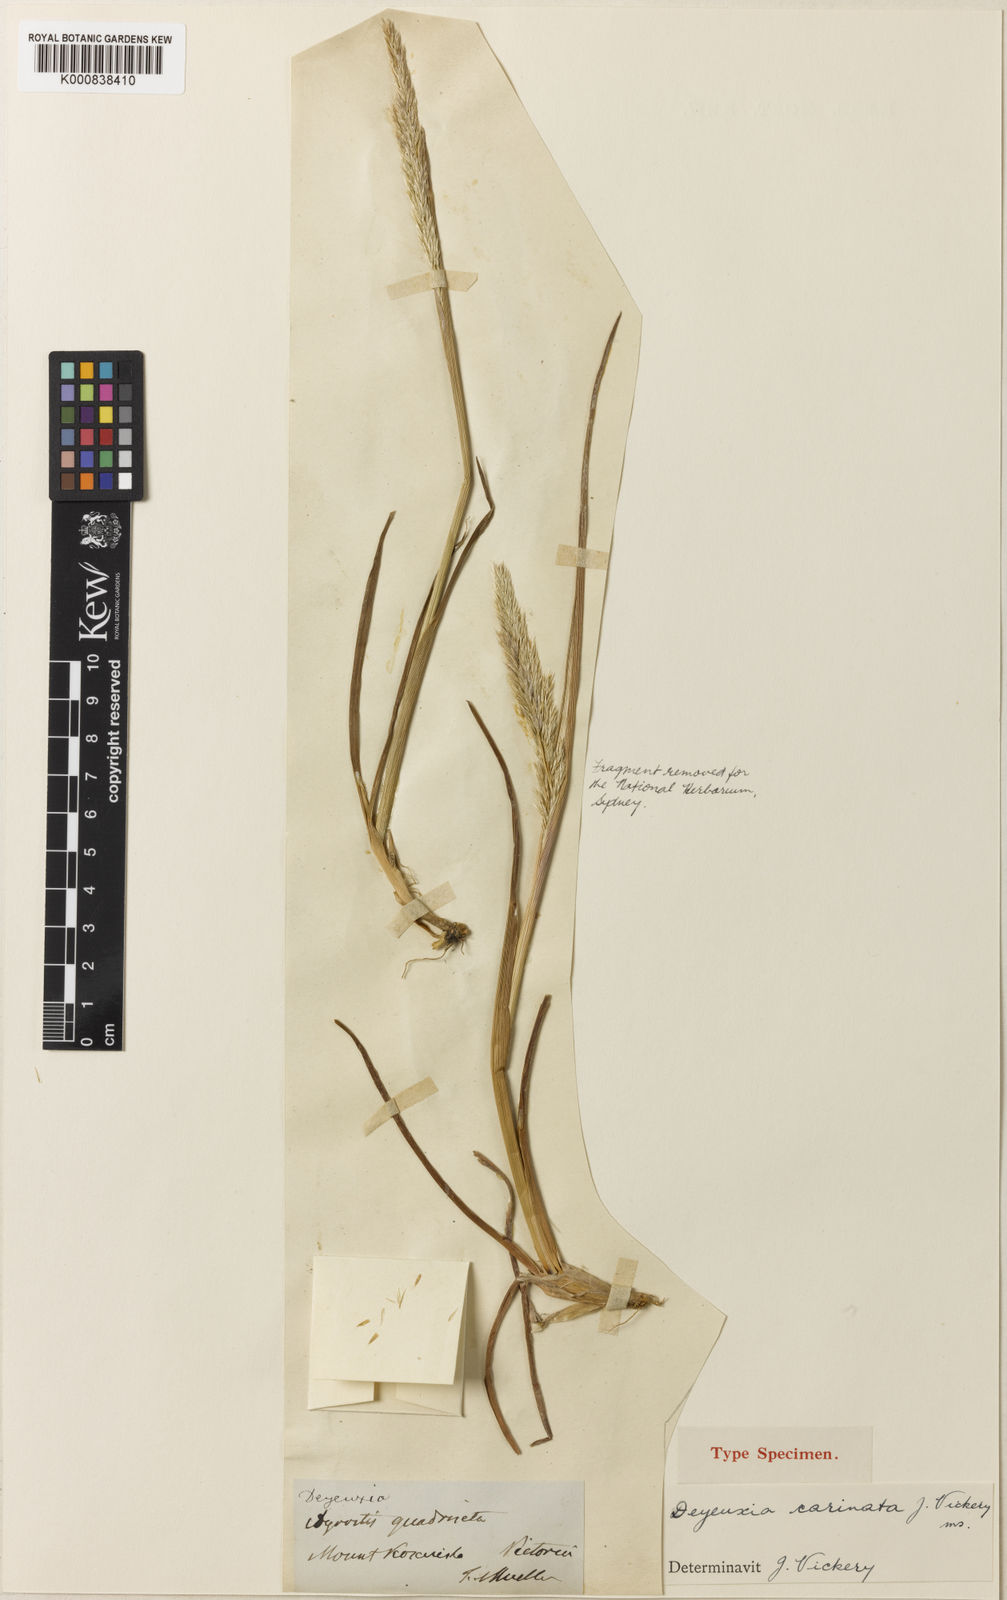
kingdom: Plantae
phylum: Tracheophyta
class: Liliopsida
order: Poales
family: Poaceae
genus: Calamagrostis
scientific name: Calamagrostis carinata
